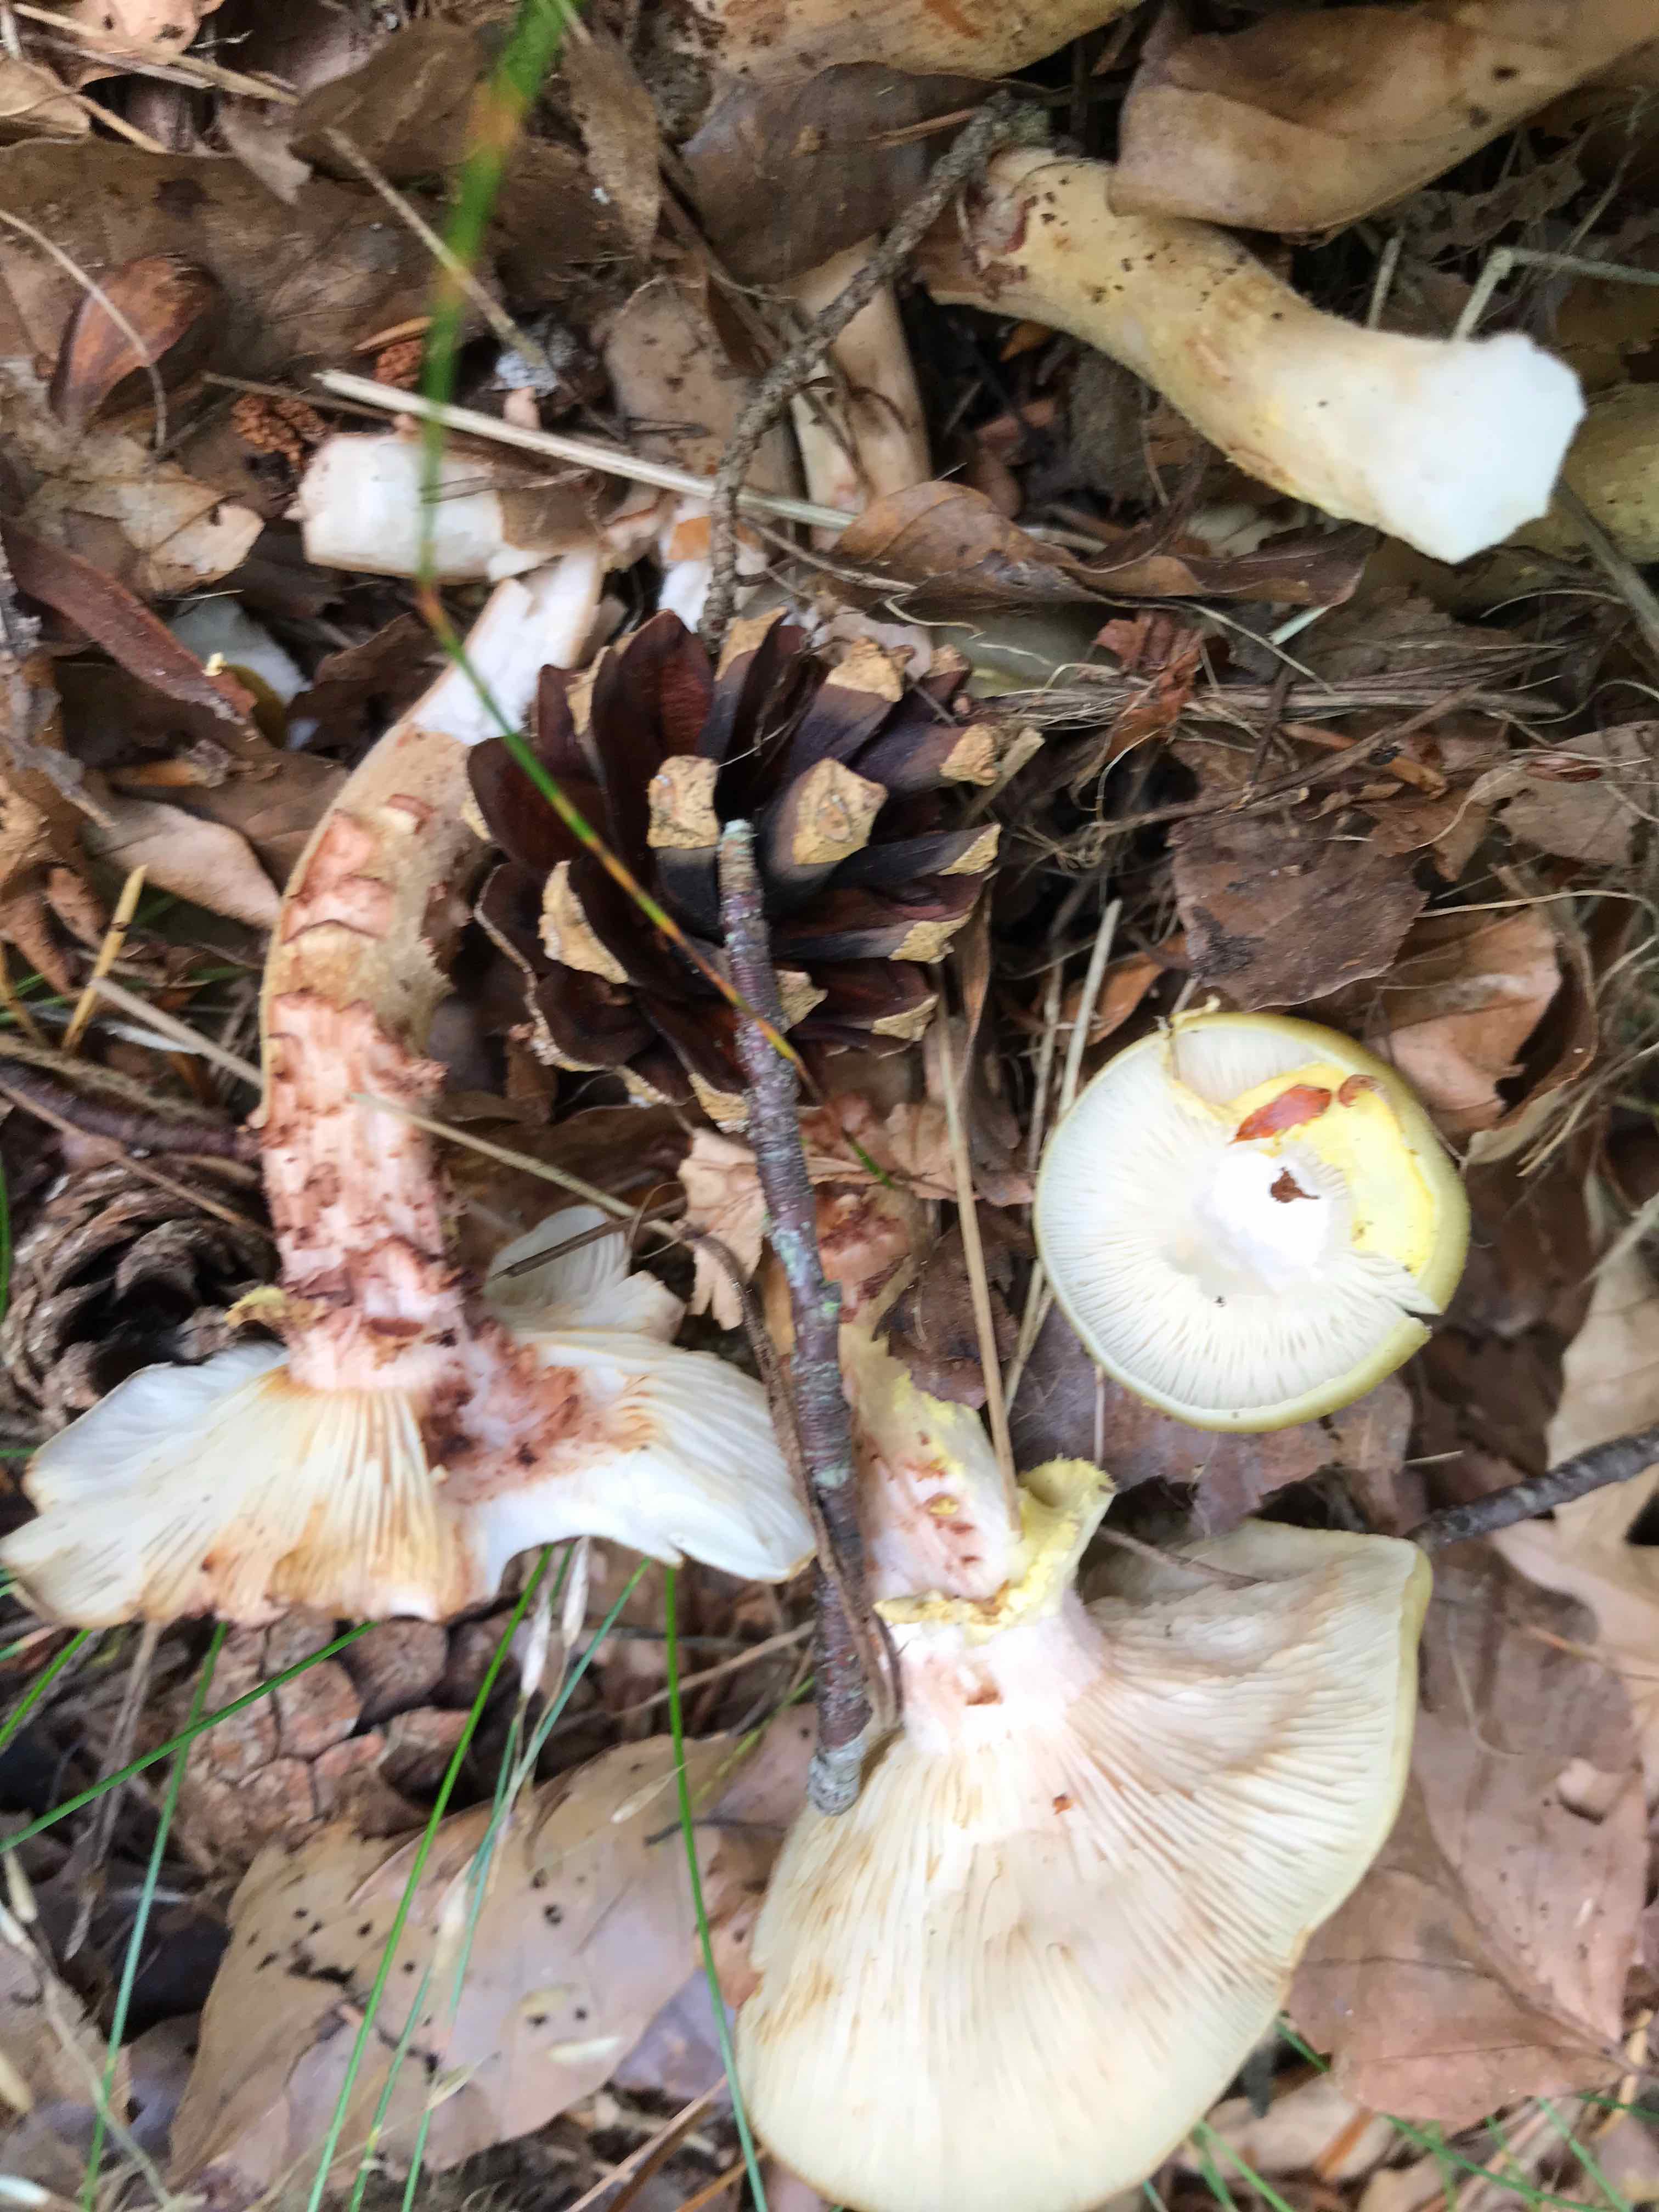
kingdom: Fungi
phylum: Basidiomycota
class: Agaricomycetes
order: Agaricales
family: Physalacriaceae
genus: Armillaria
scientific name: Armillaria mellea
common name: ægte honningsvamp
